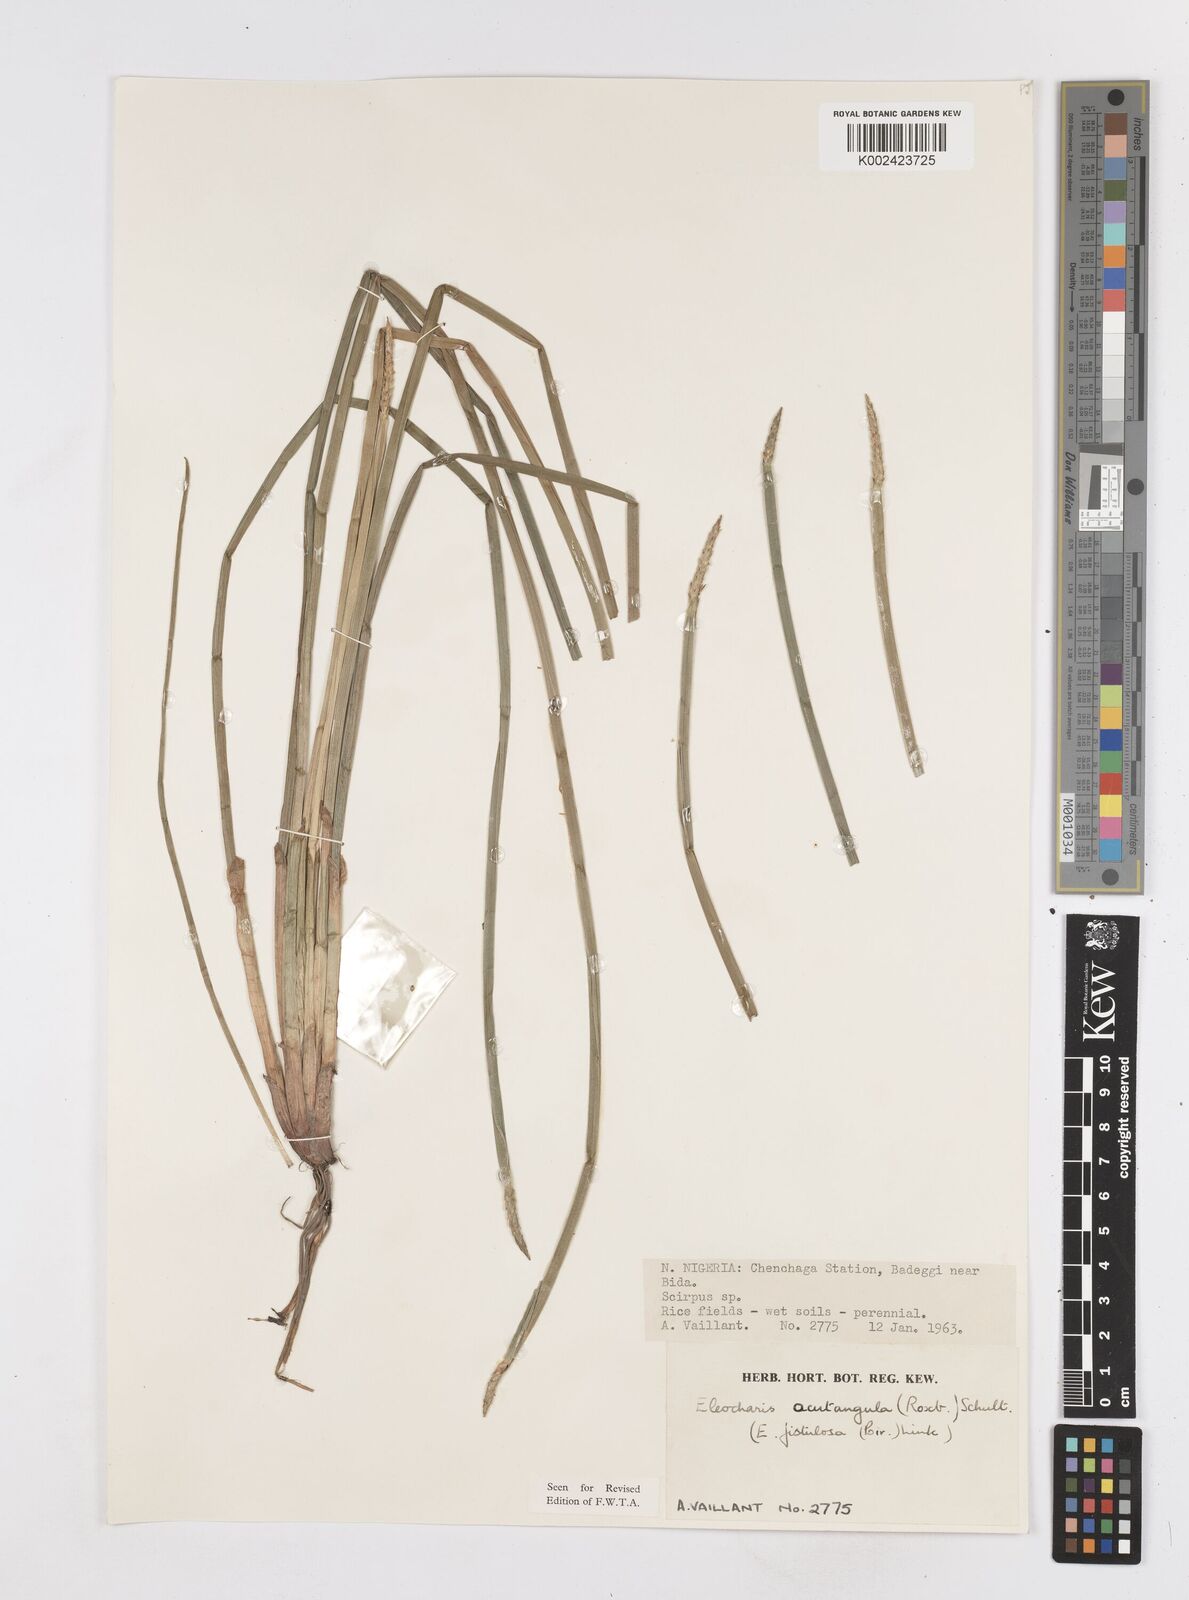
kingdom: Plantae
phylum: Tracheophyta
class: Liliopsida
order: Poales
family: Cyperaceae
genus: Eleocharis
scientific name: Eleocharis acutangula
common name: Acute spikerush
